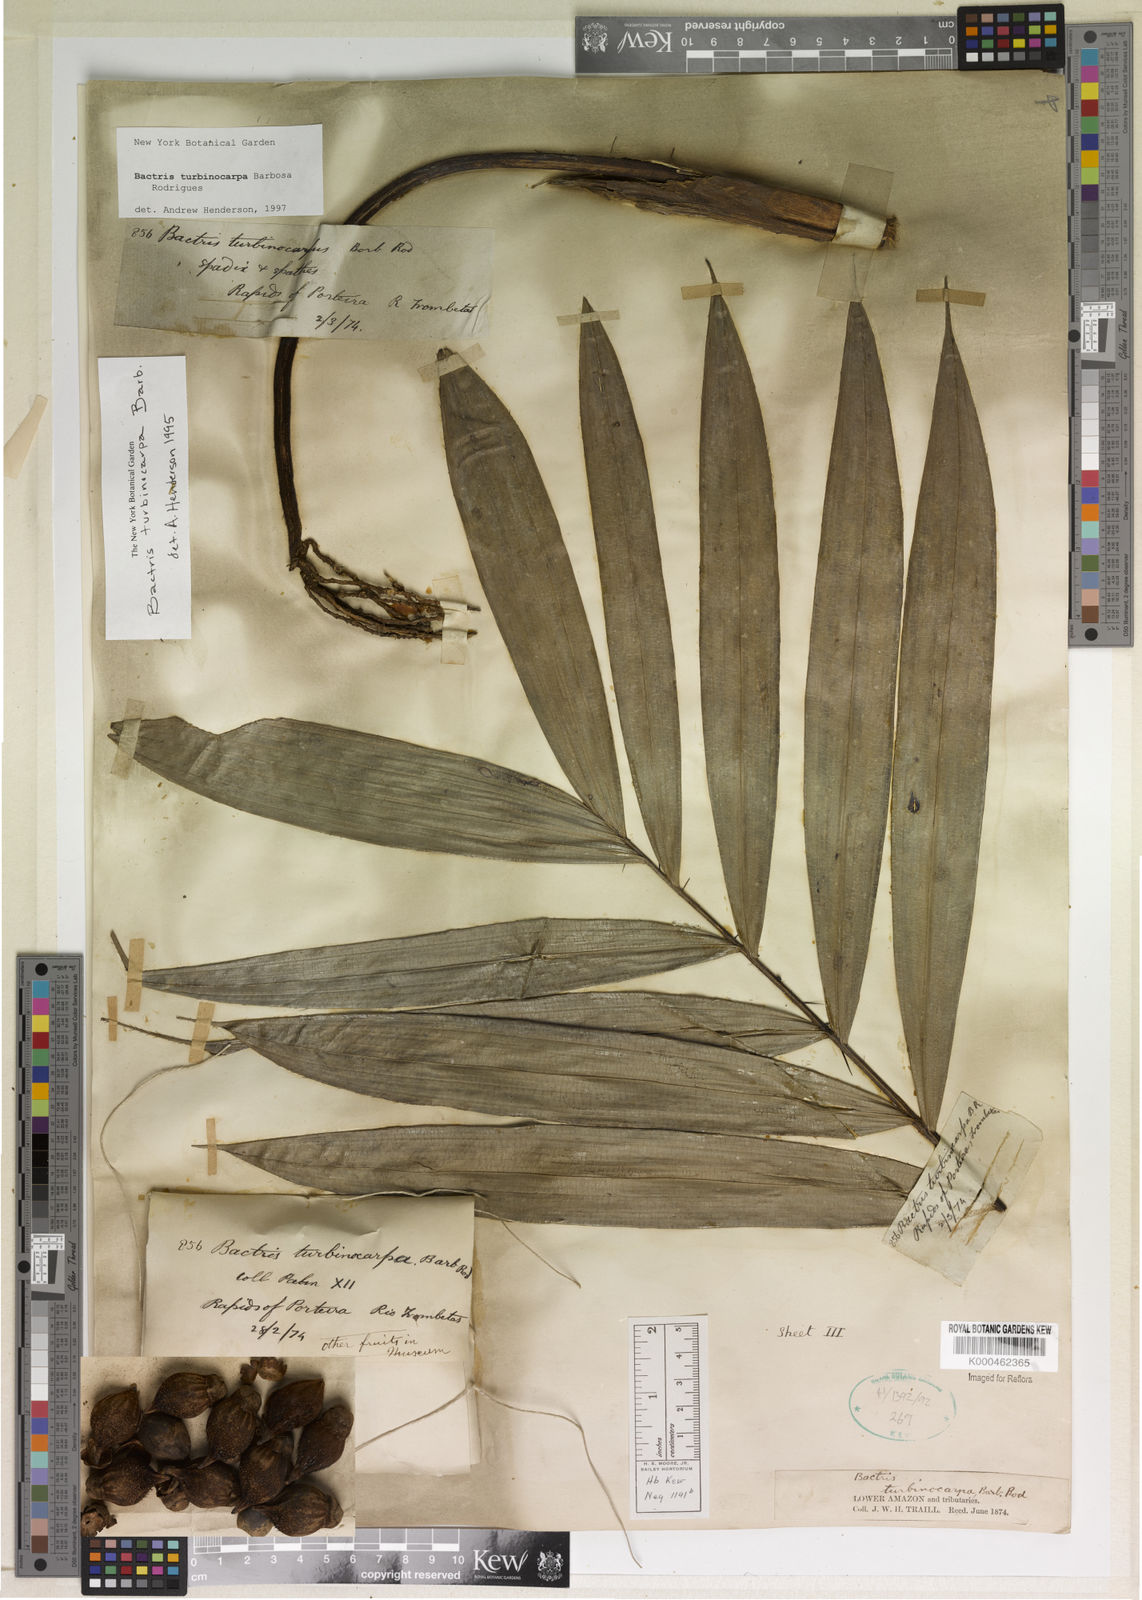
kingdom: Plantae
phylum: Tracheophyta
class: Liliopsida
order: Arecales
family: Arecaceae
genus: Bactris
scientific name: Bactris turbinocarpa
